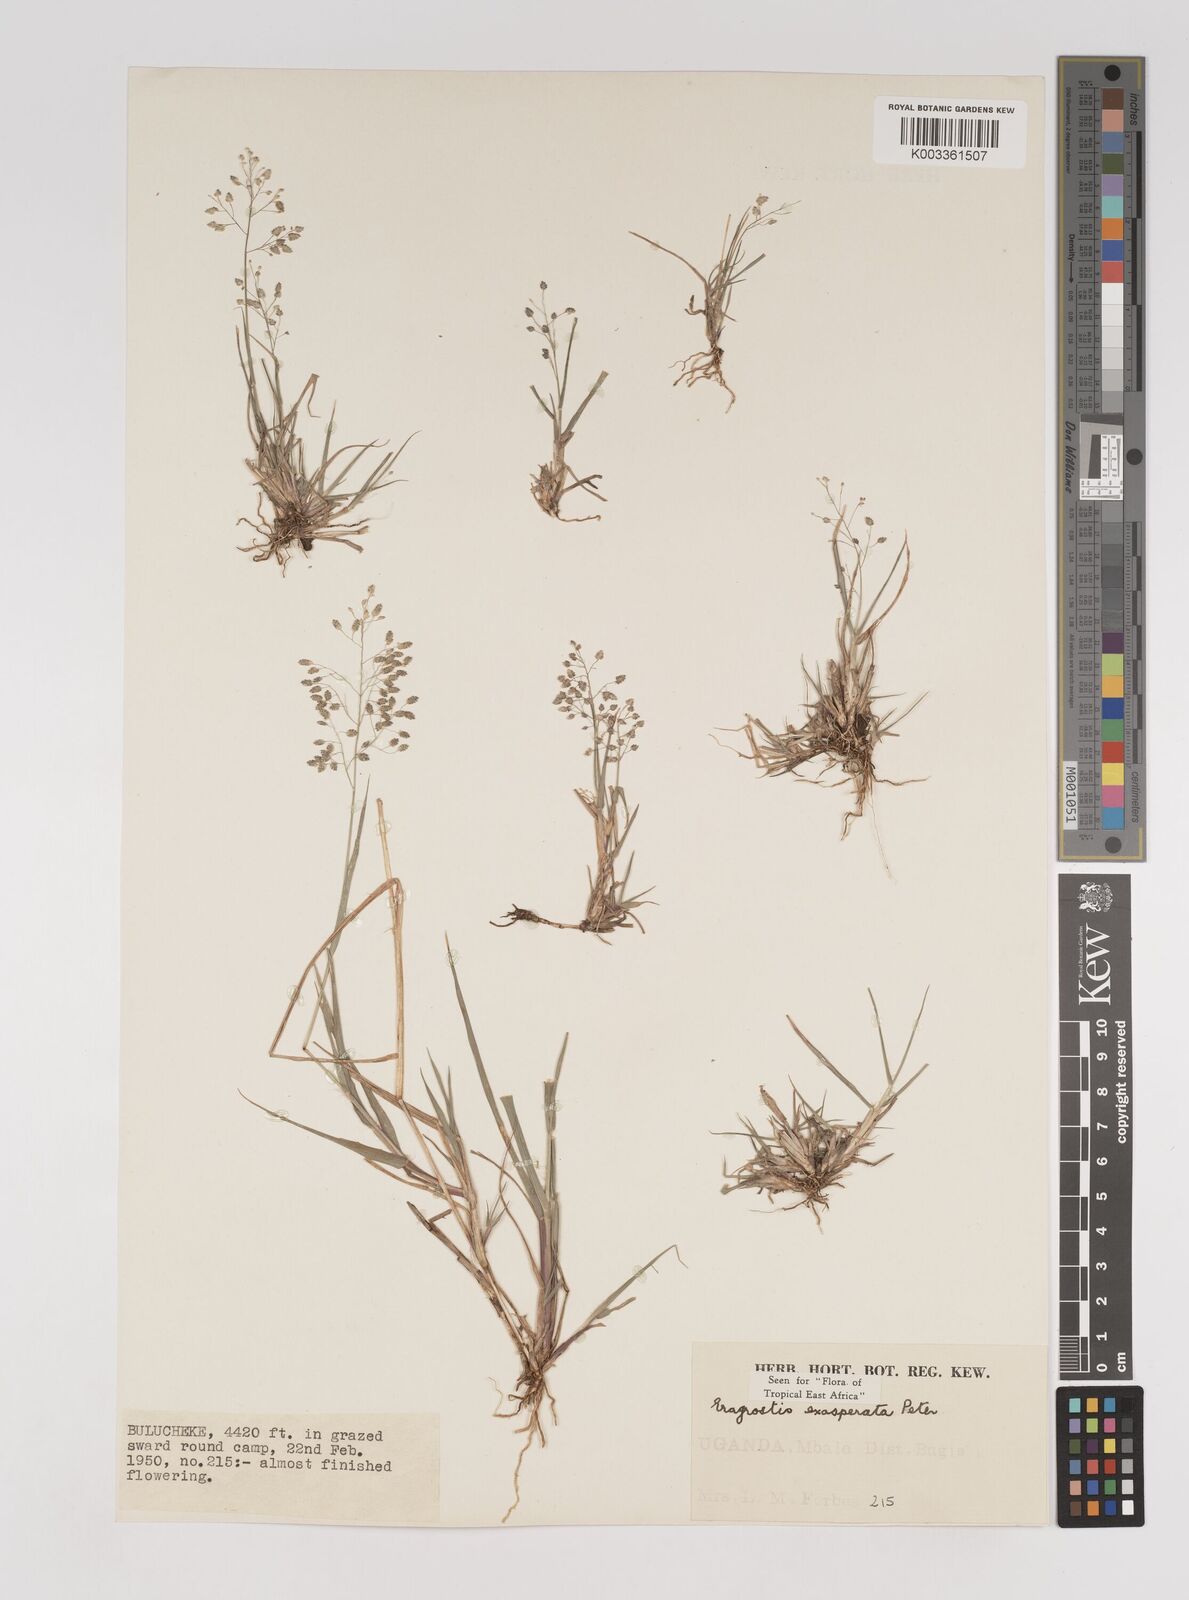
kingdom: Plantae
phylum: Tracheophyta
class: Liliopsida
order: Poales
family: Poaceae
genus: Eragrostis
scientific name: Eragrostis exasperata
